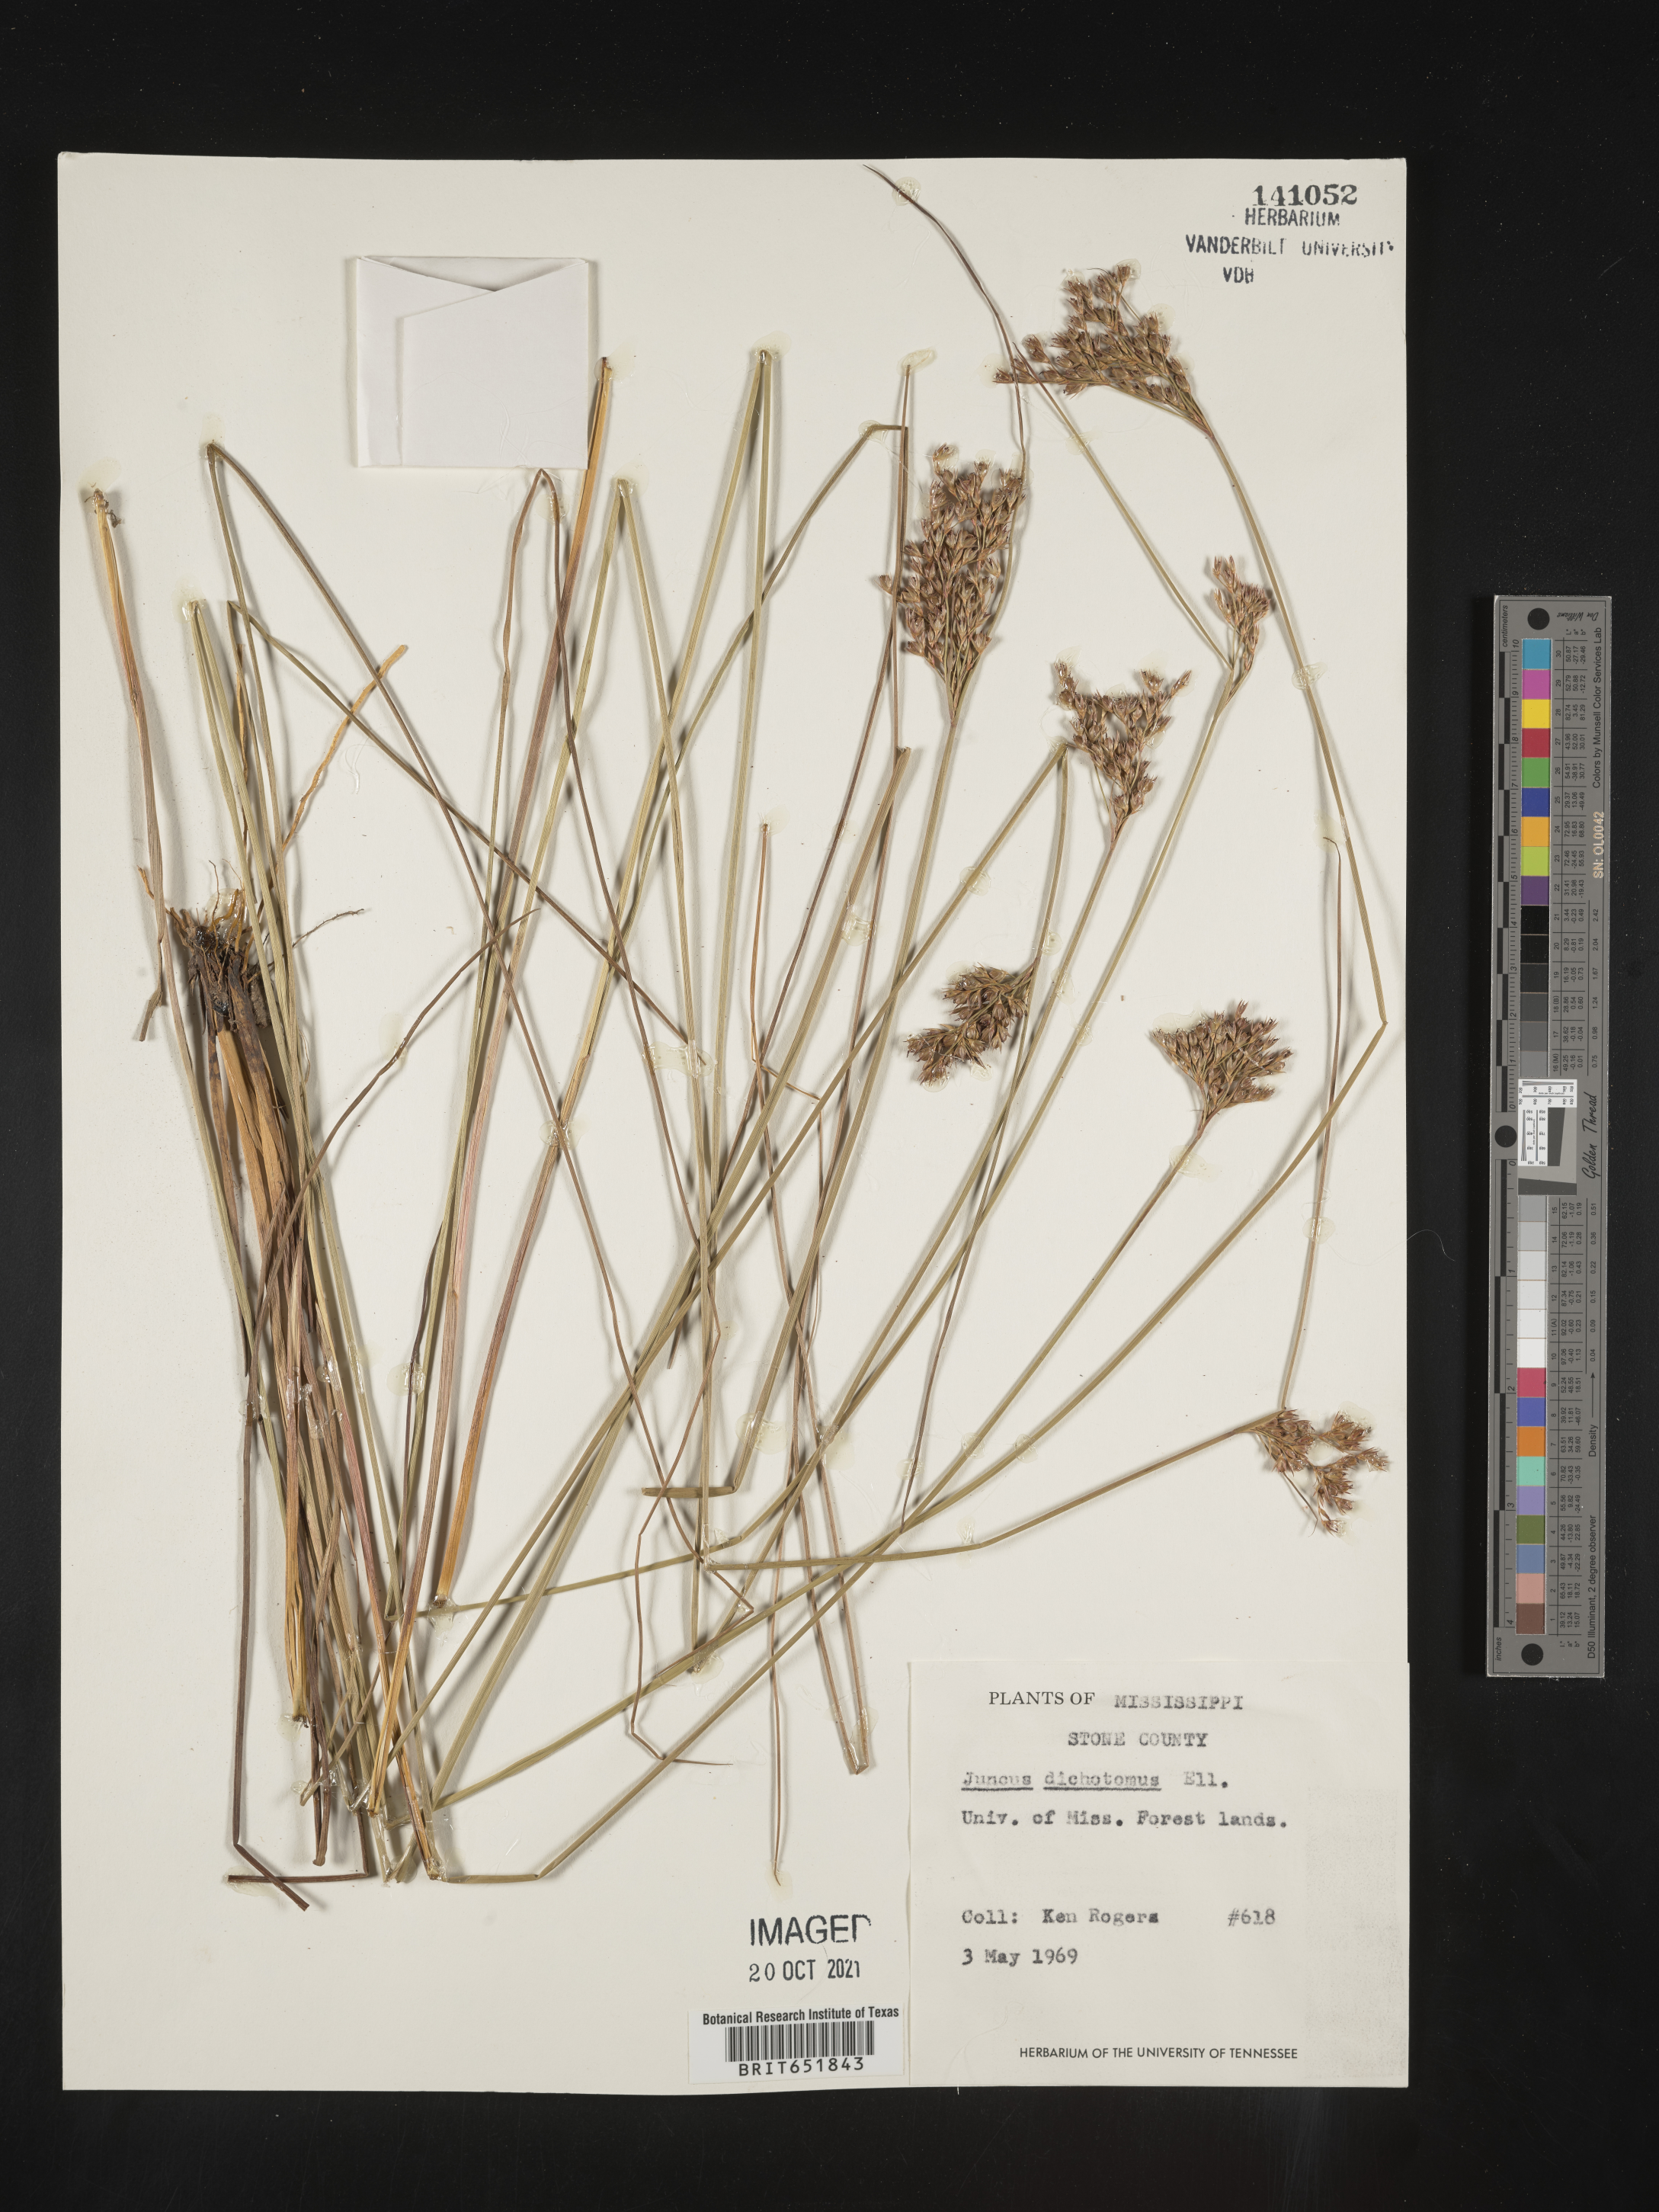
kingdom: Plantae
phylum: Tracheophyta
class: Liliopsida
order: Poales
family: Juncaceae
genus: Juncus
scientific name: Juncus dichotomus
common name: Forked rush
